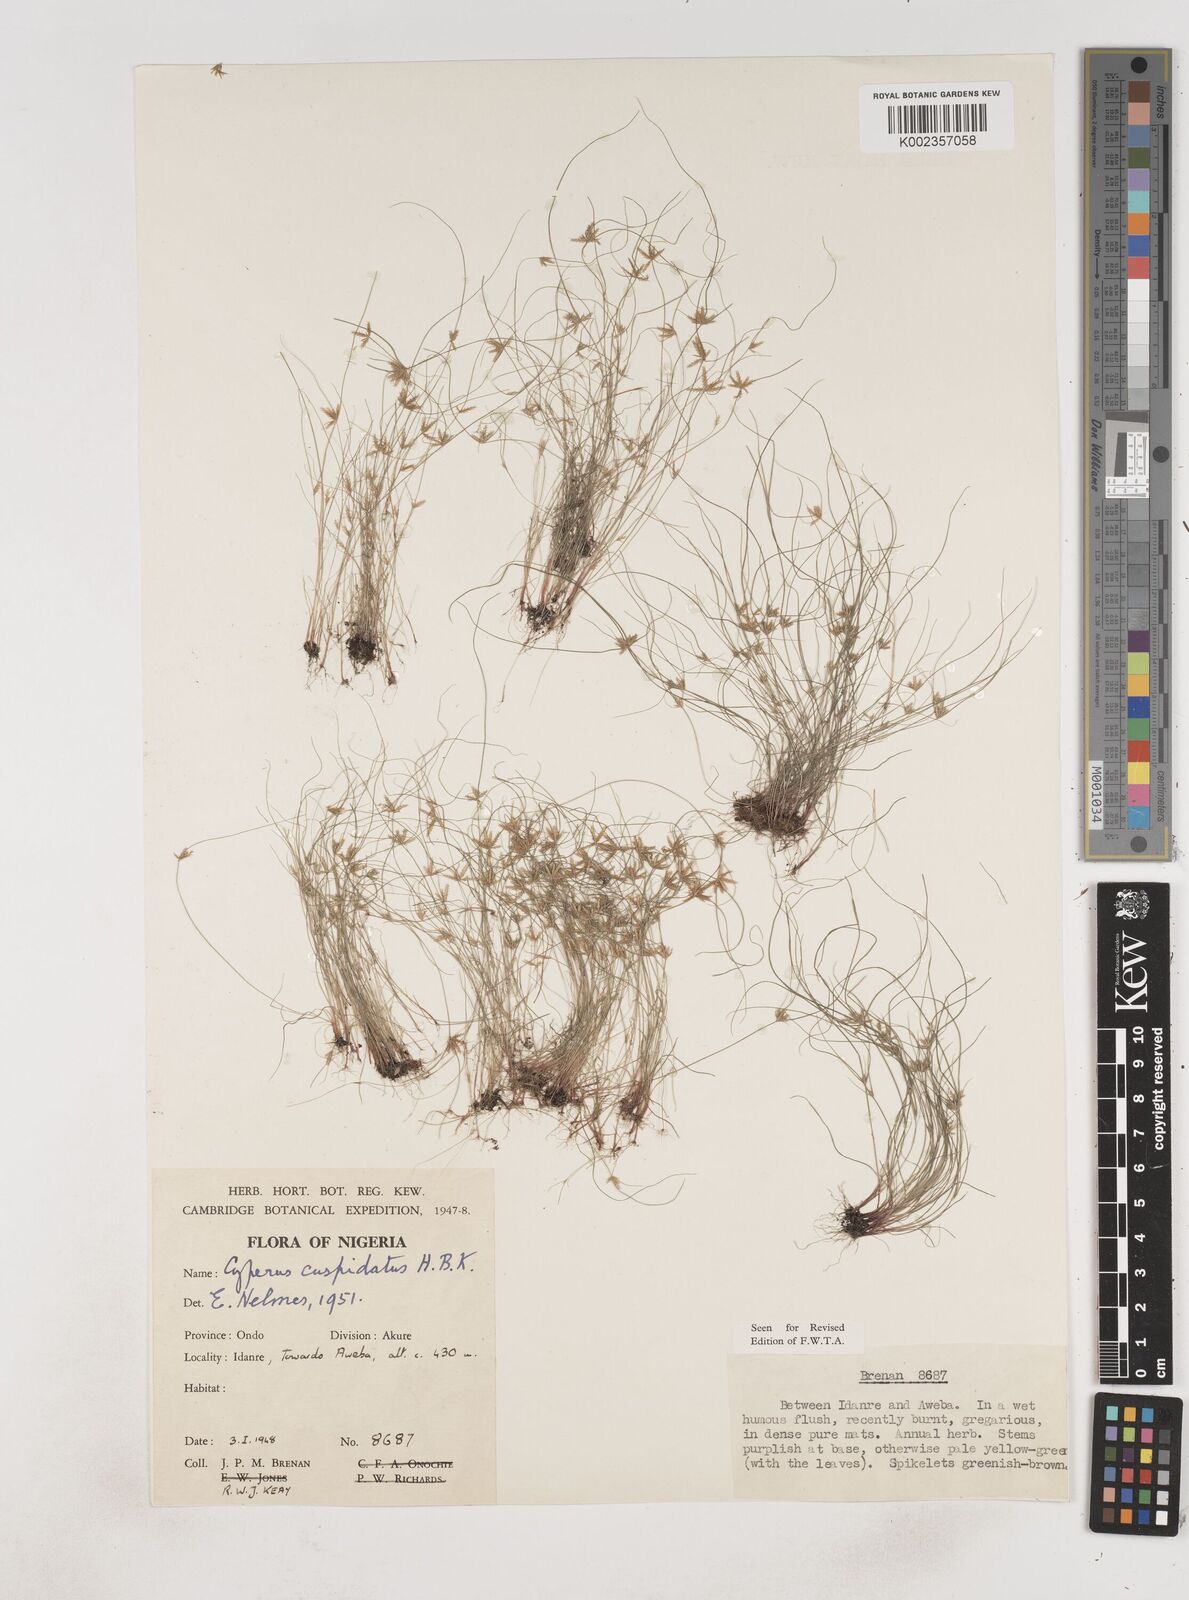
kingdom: Plantae
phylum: Tracheophyta
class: Liliopsida
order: Poales
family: Cyperaceae
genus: Cyperus
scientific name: Cyperus
